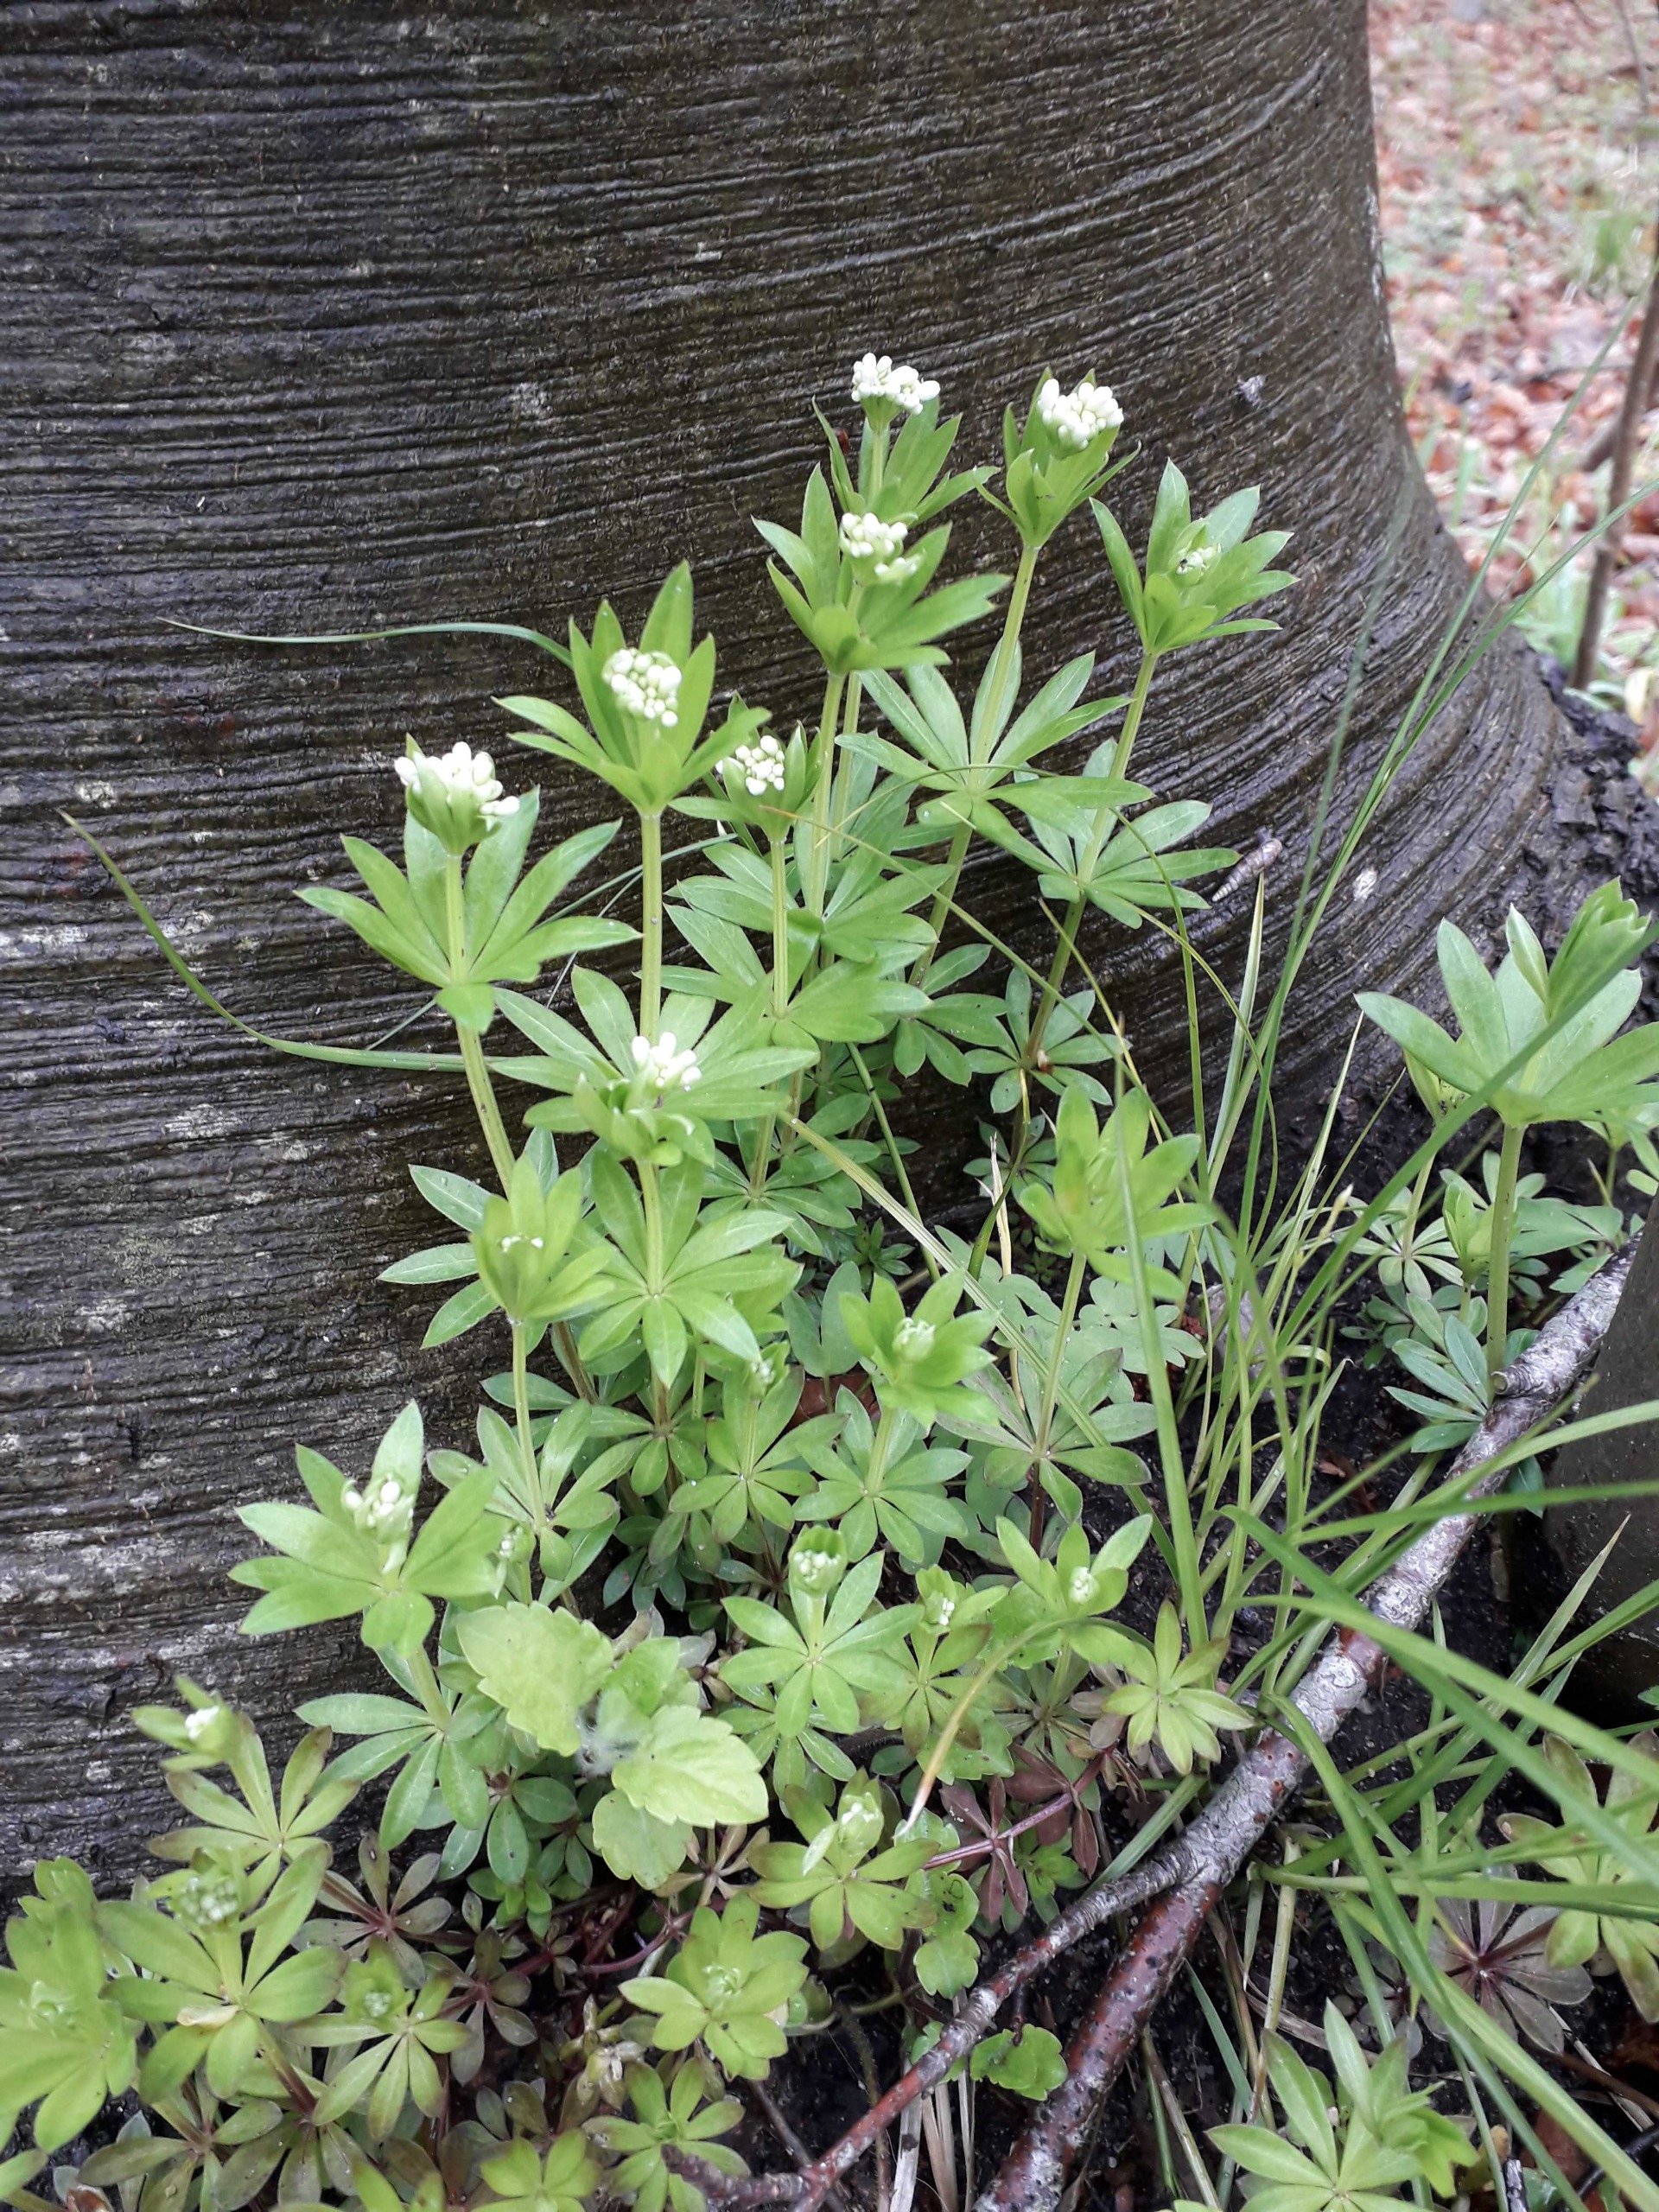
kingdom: Plantae
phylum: Tracheophyta
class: Magnoliopsida
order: Gentianales
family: Rubiaceae
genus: Galium
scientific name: Galium odoratum
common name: Skovmærke
